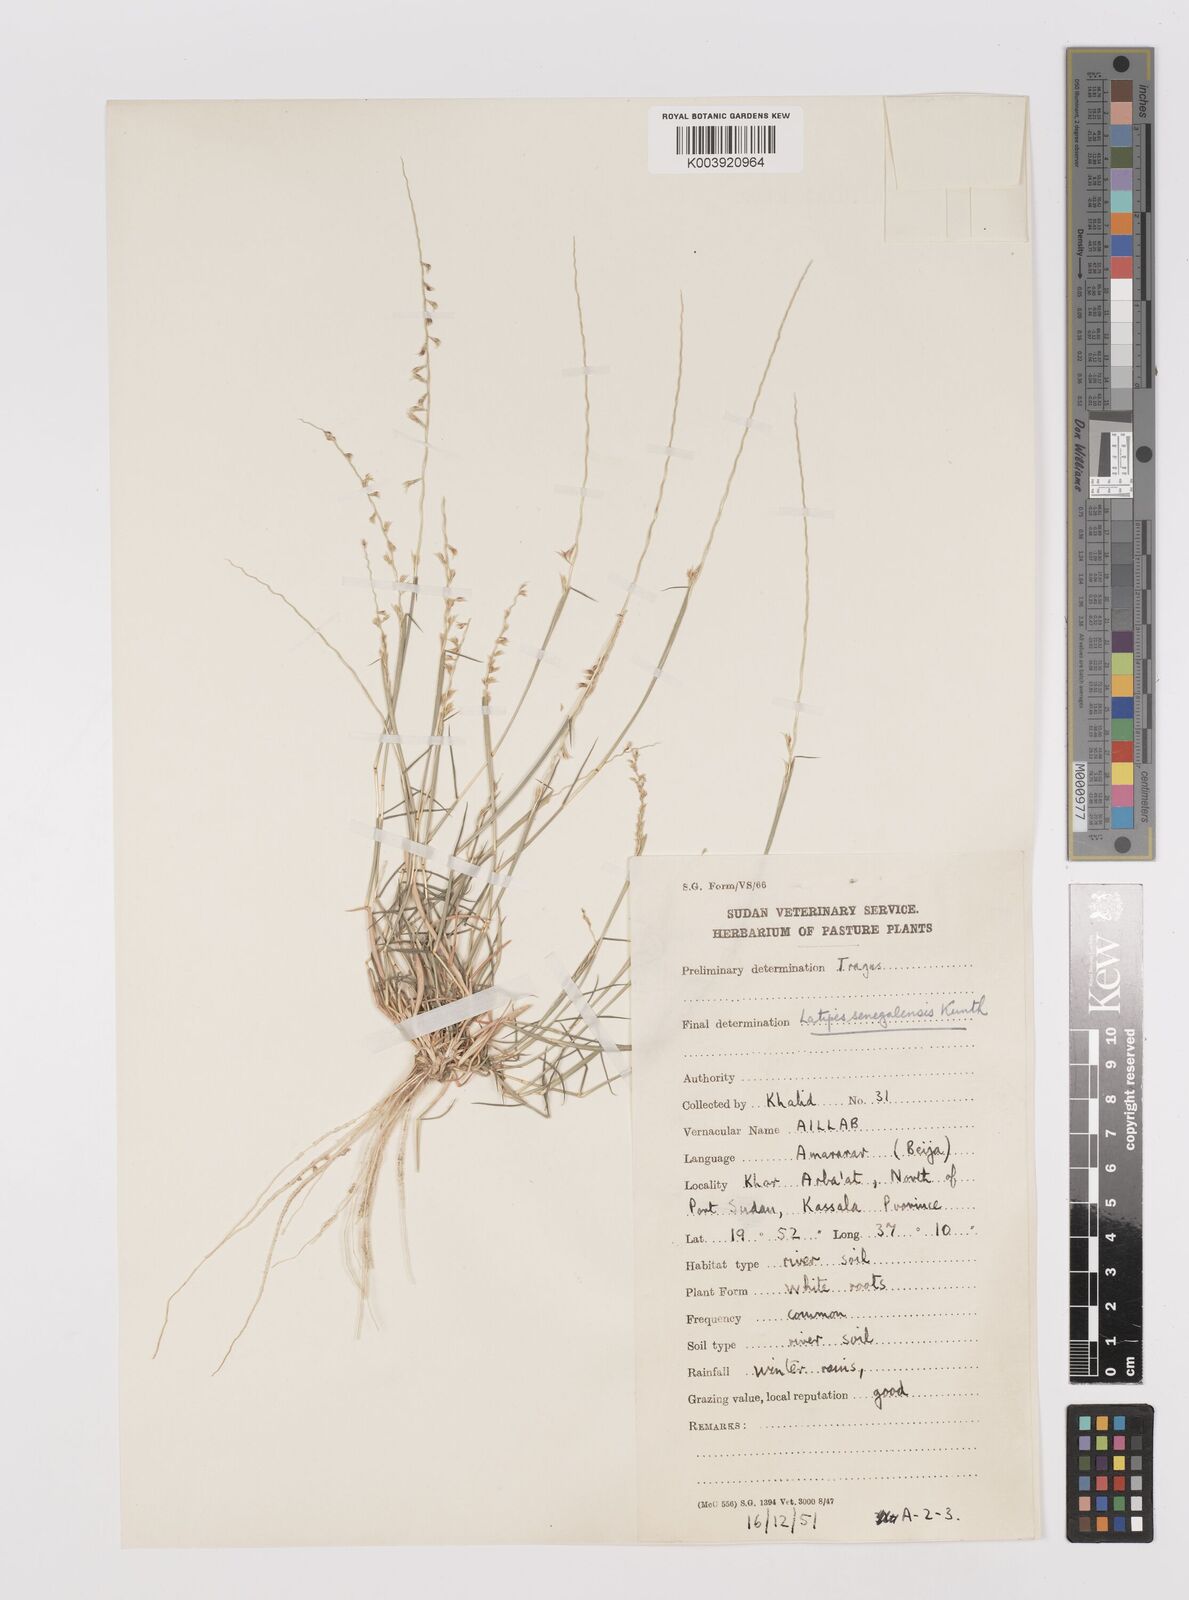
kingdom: Plantae
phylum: Tracheophyta
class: Liliopsida
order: Poales
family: Poaceae
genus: Leptothrium
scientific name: Leptothrium senegalense
